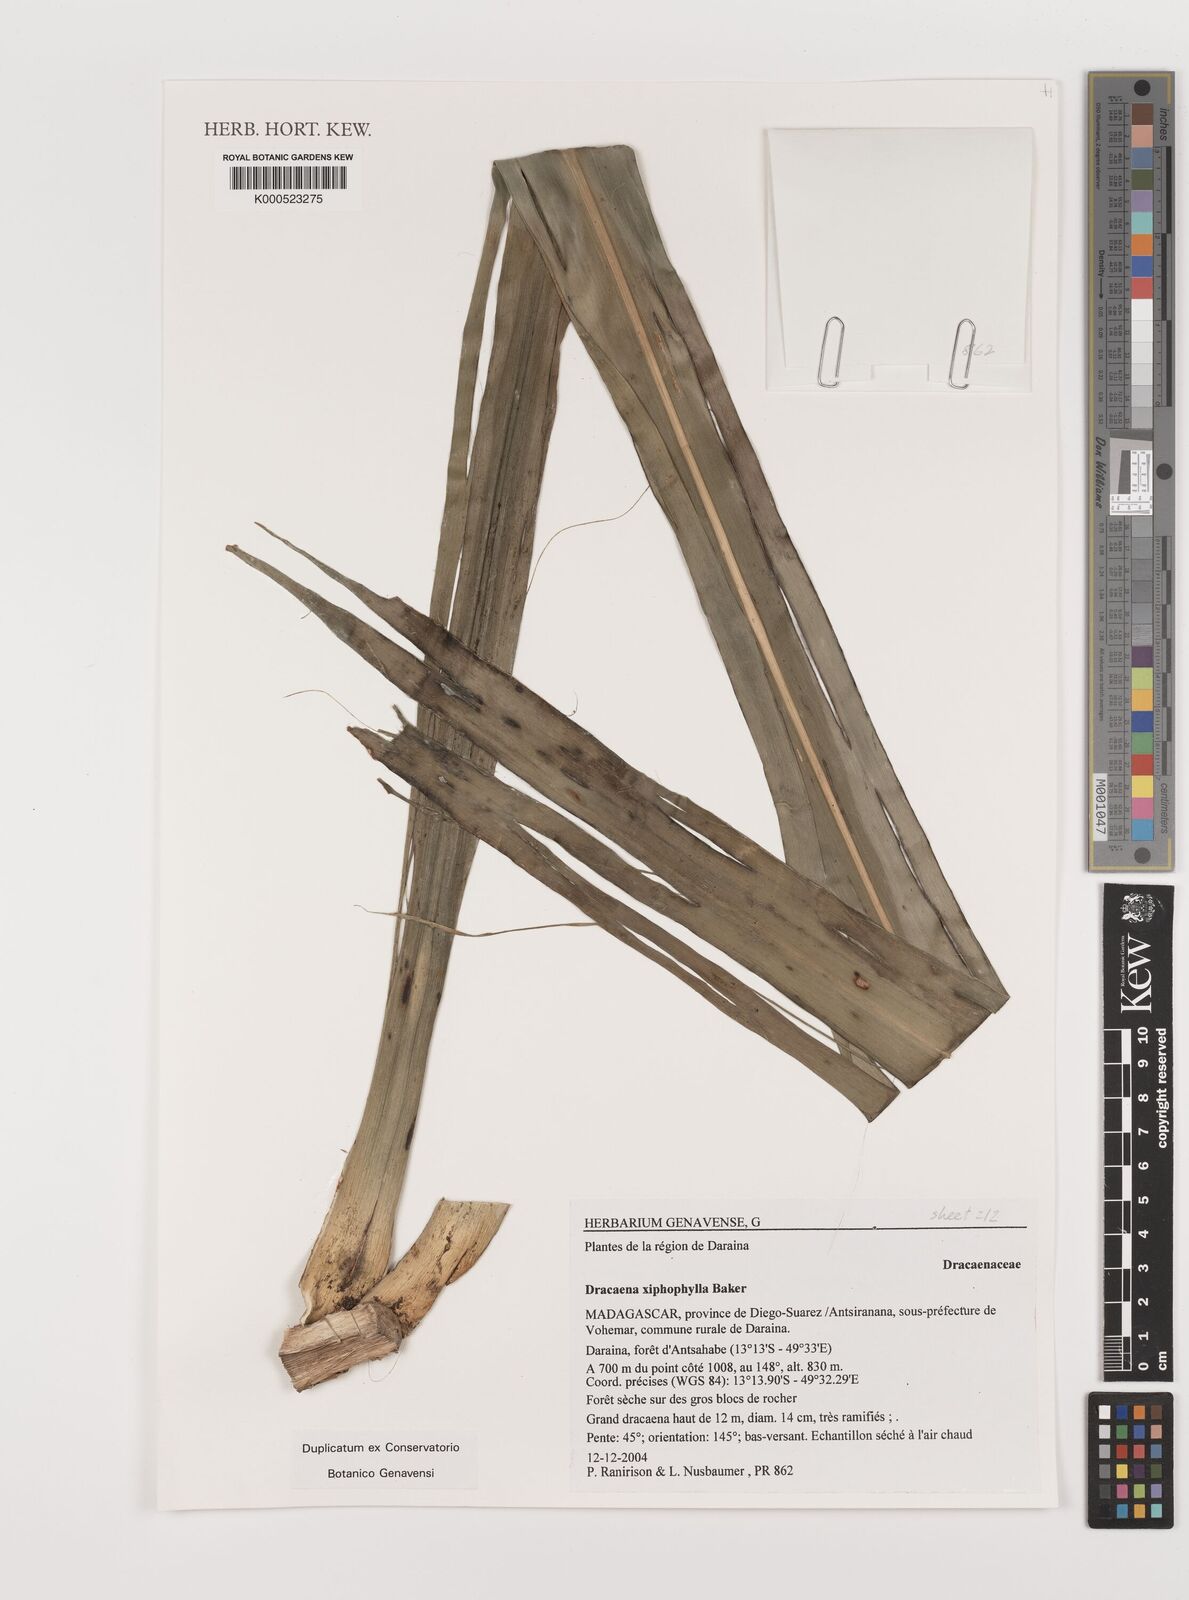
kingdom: Plantae
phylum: Tracheophyta
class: Liliopsida
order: Asparagales
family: Asparagaceae
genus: Dracaena
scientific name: Dracaena xiphophylla
